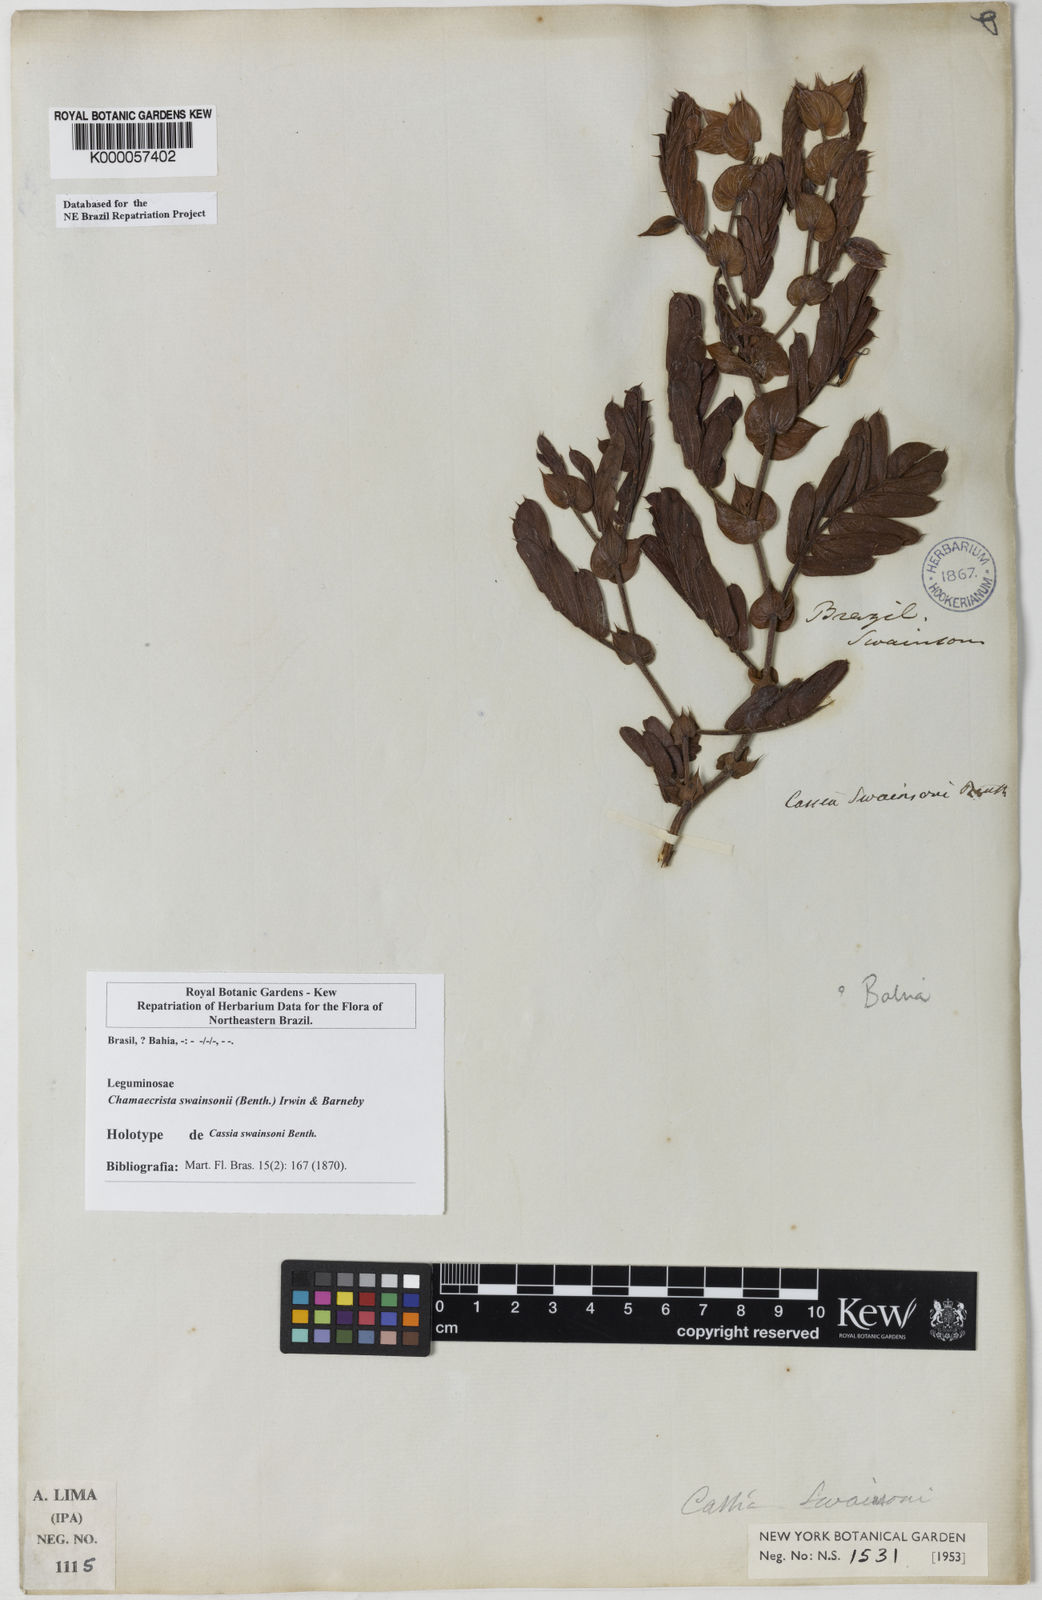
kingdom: Plantae
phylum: Tracheophyta
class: Magnoliopsida
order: Fabales
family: Fabaceae
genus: Chamaecrista
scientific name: Chamaecrista swainsonii
